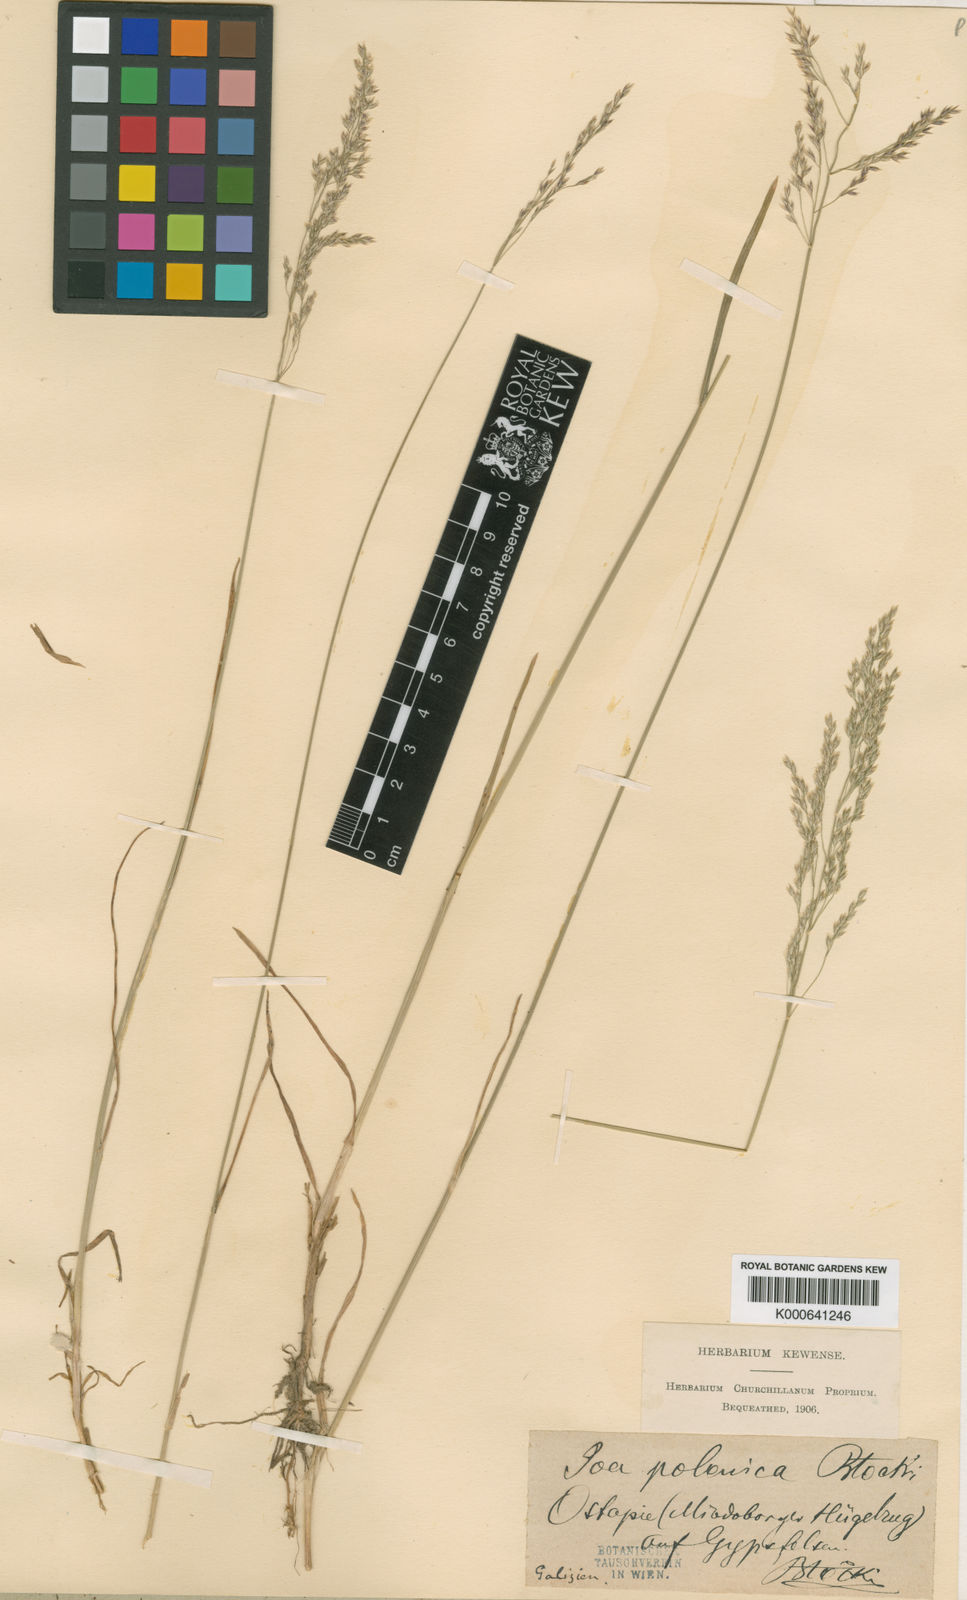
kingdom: Plantae
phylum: Tracheophyta
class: Liliopsida
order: Poales
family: Poaceae
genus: Poa
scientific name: Poa versicolor
